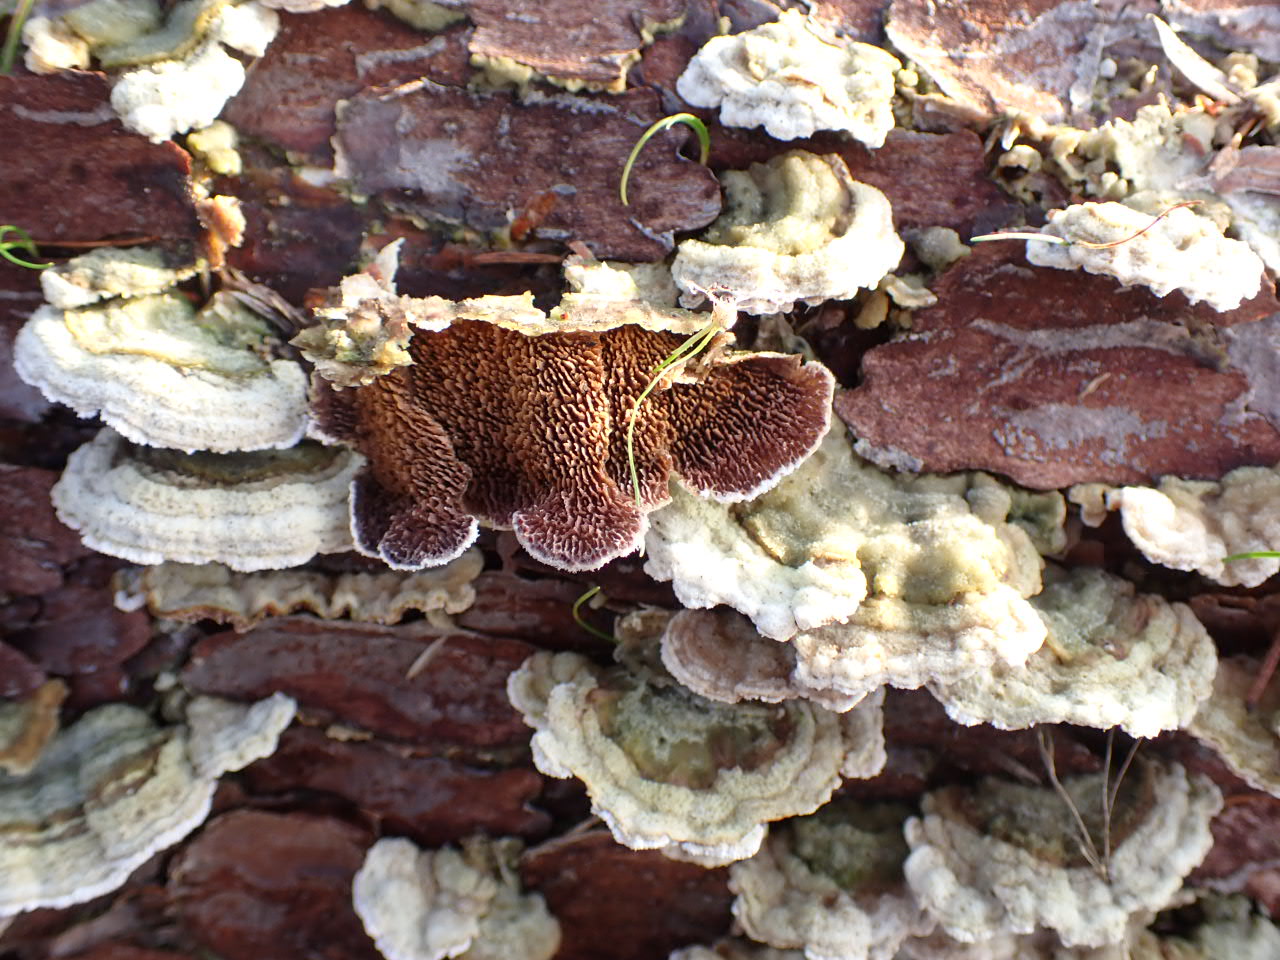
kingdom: Fungi
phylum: Basidiomycota
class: Agaricomycetes
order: Hymenochaetales
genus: Trichaptum
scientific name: Trichaptum fuscoviolaceum
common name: tandet violporesvamp
